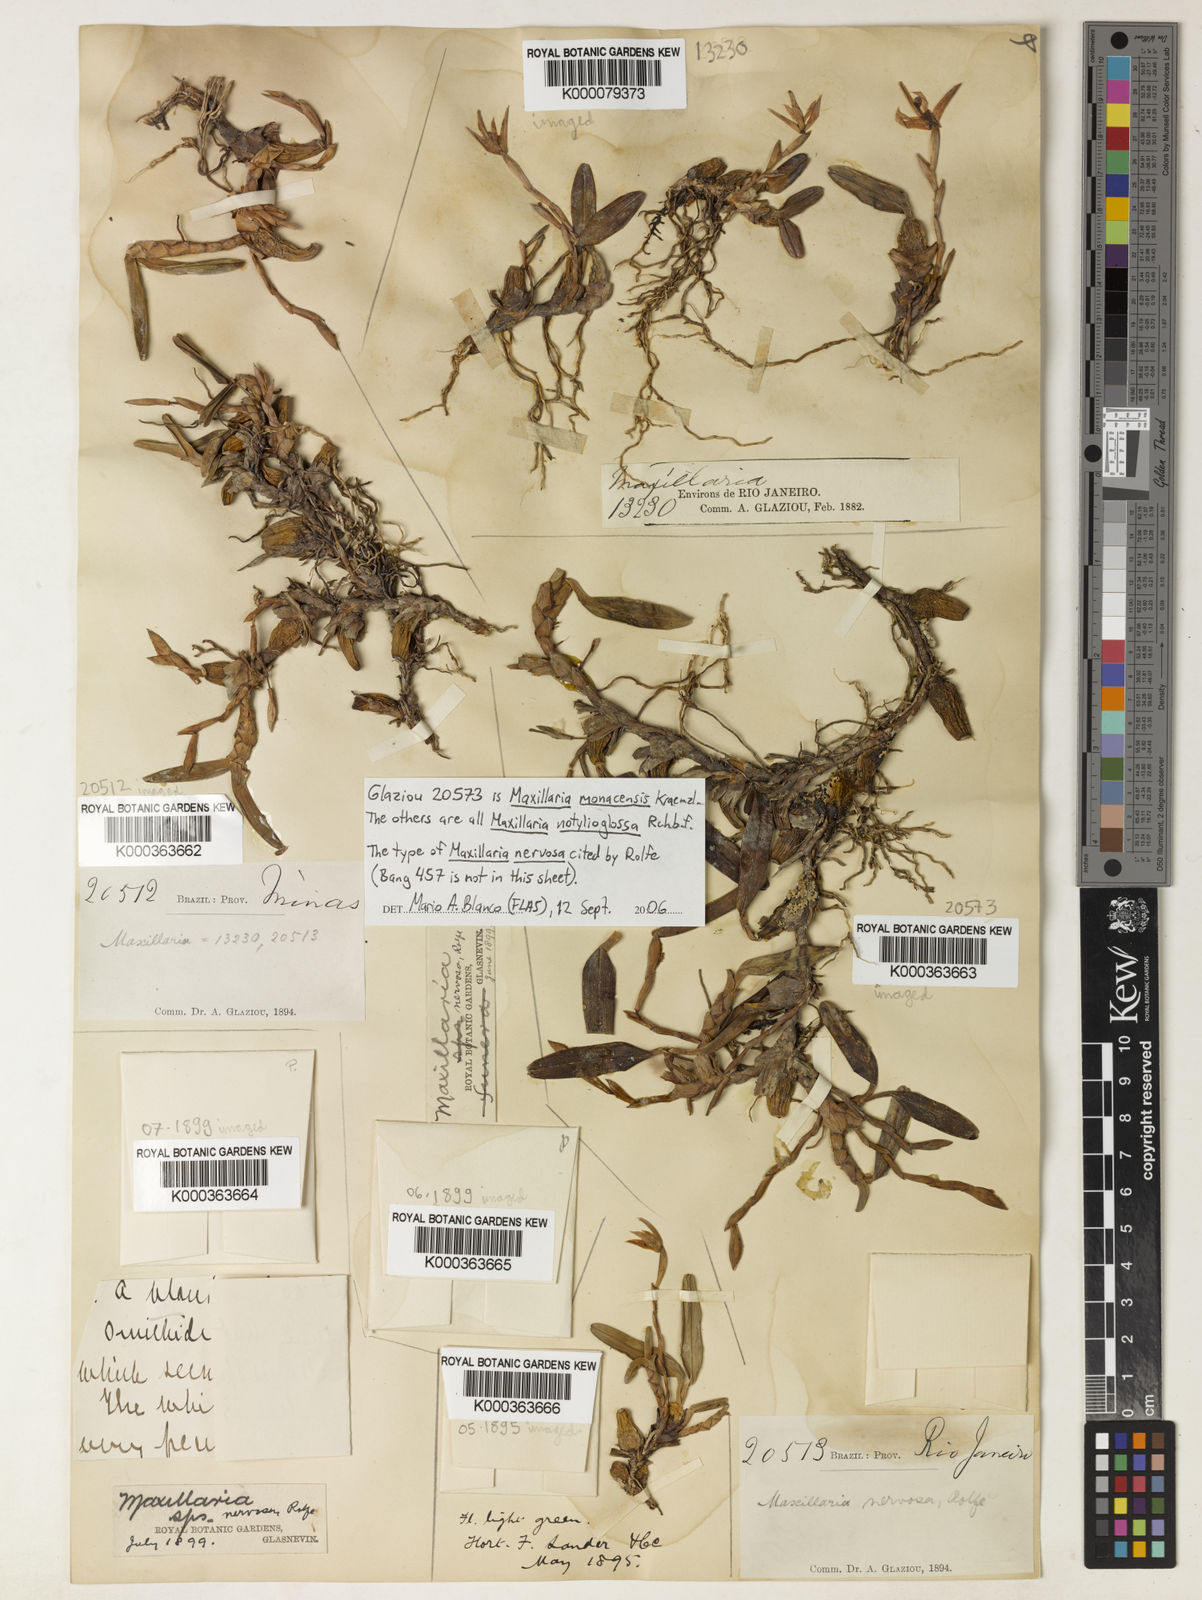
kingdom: Plantae
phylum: Tracheophyta
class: Liliopsida
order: Asparagales
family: Orchidaceae
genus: Maxillaria
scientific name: Maxillaria notylioglossa
